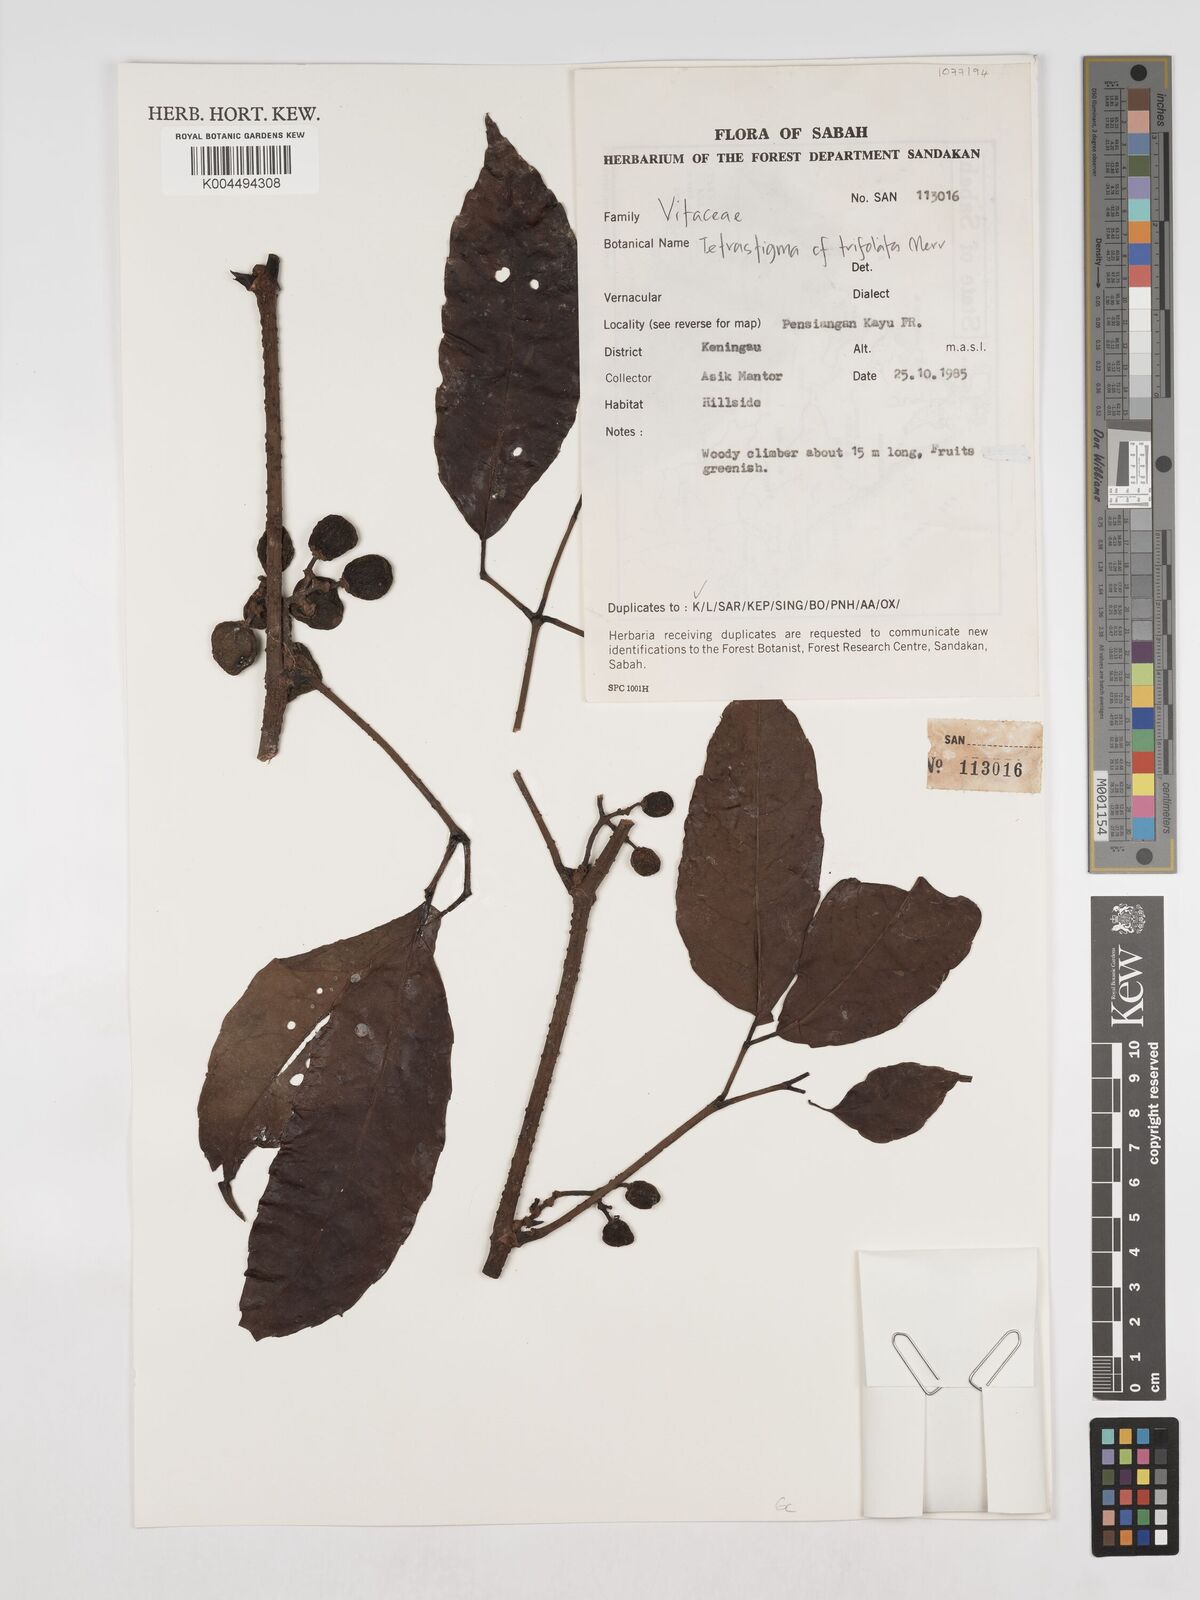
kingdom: Plantae
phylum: Tracheophyta
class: Magnoliopsida
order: Vitales
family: Vitaceae
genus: Tetrastigma
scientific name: Tetrastigma trifoliolatum
